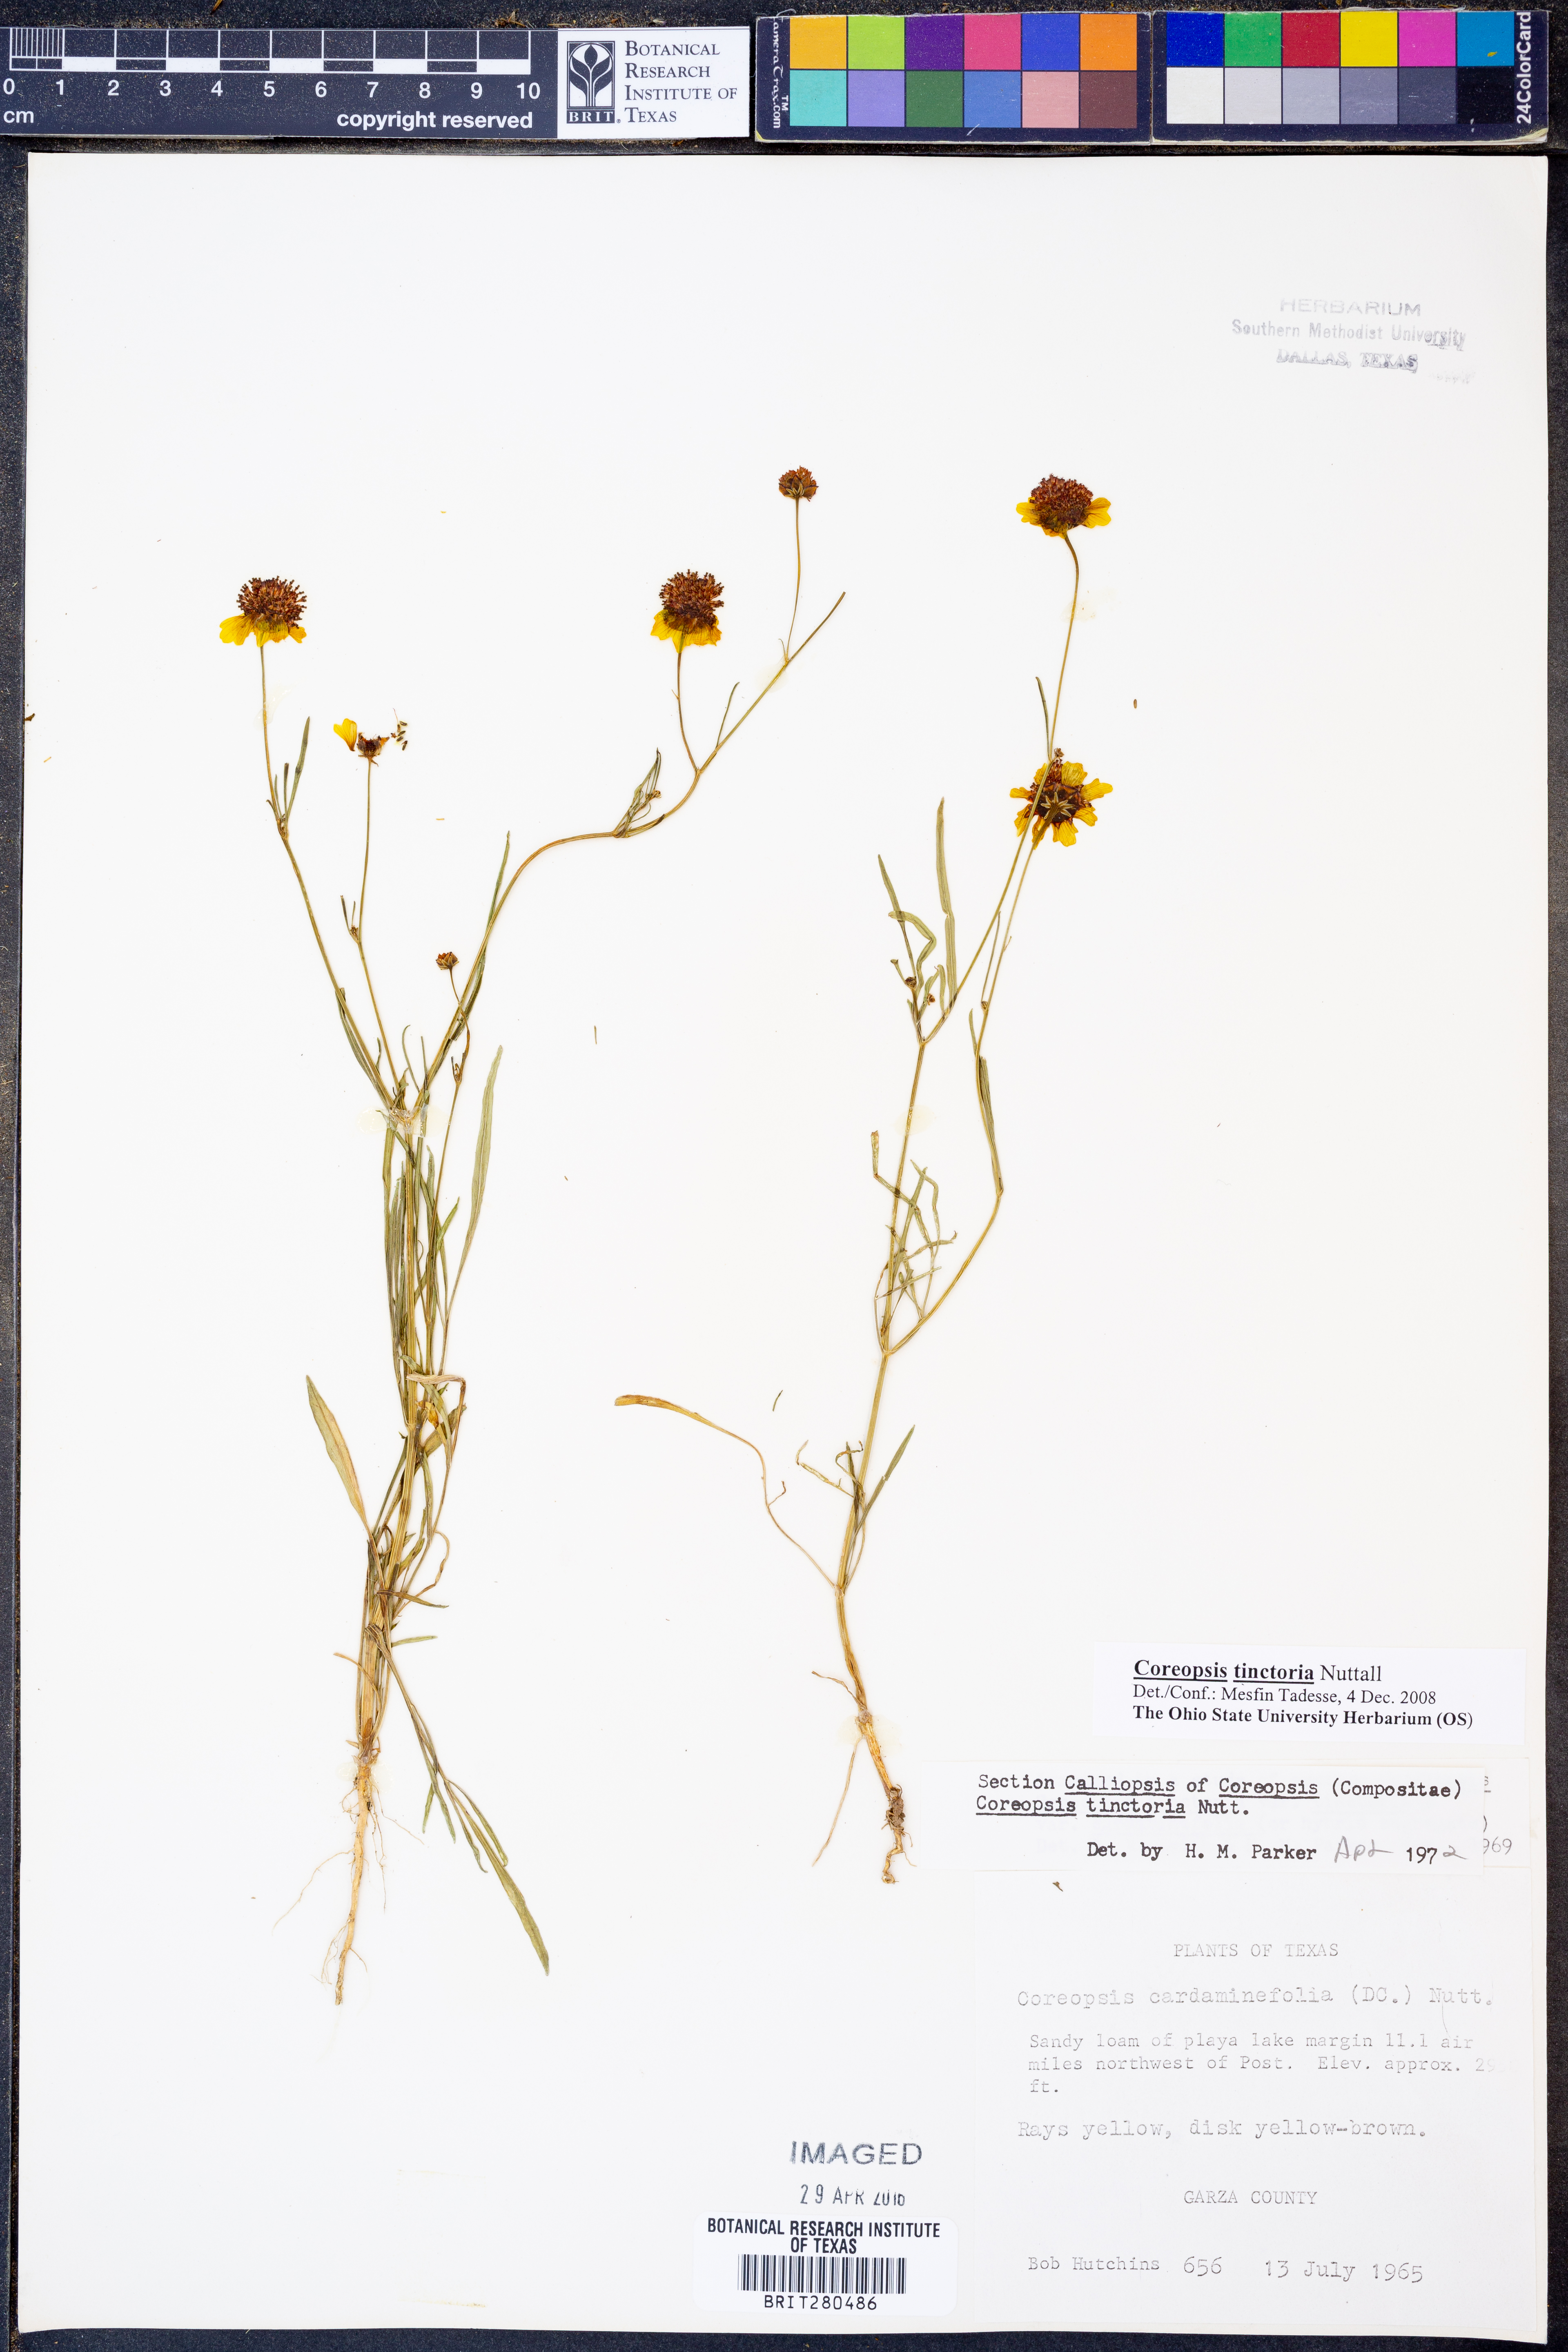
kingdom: Plantae
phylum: Tracheophyta
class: Magnoliopsida
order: Asterales
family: Asteraceae
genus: Coreopsis
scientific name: Coreopsis tinctoria
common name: Garden tickseed
